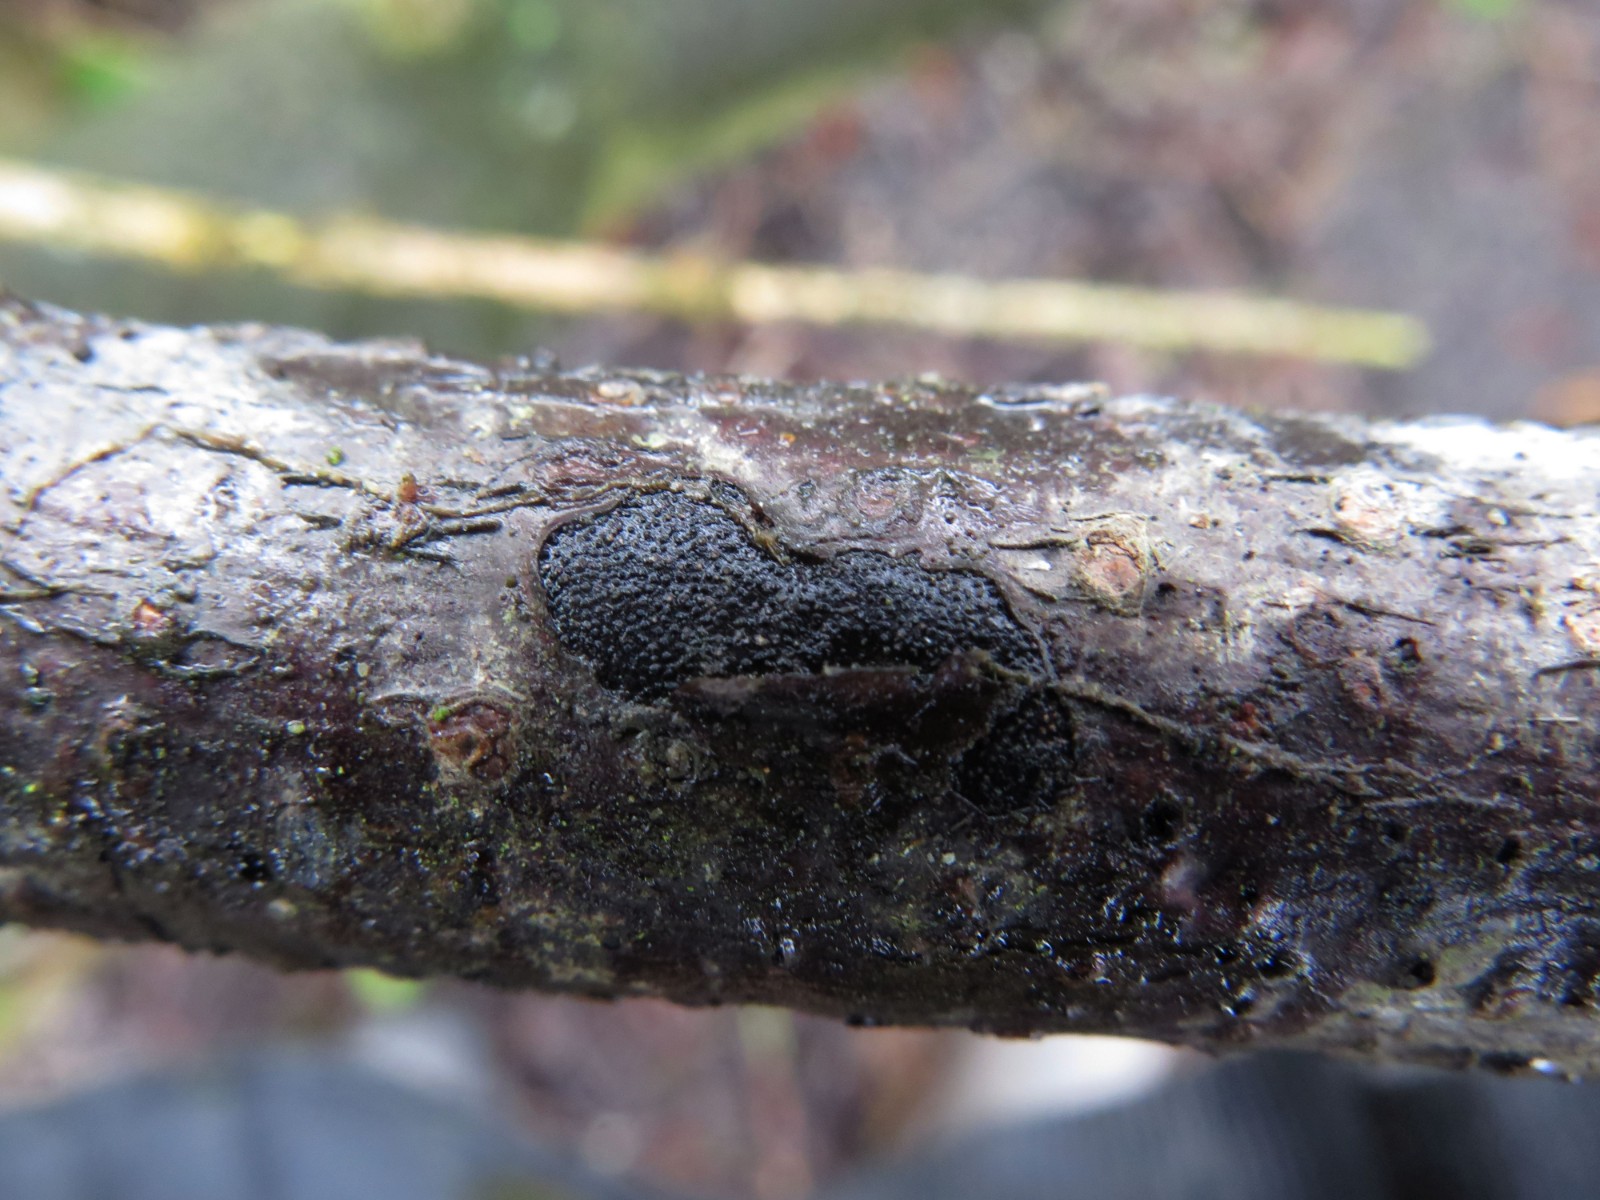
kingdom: Fungi
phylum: Ascomycota
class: Sordariomycetes
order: Xylariales
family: Diatrypaceae
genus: Diatrype
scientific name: Diatrype stigma
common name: udbredt kulskorpe
